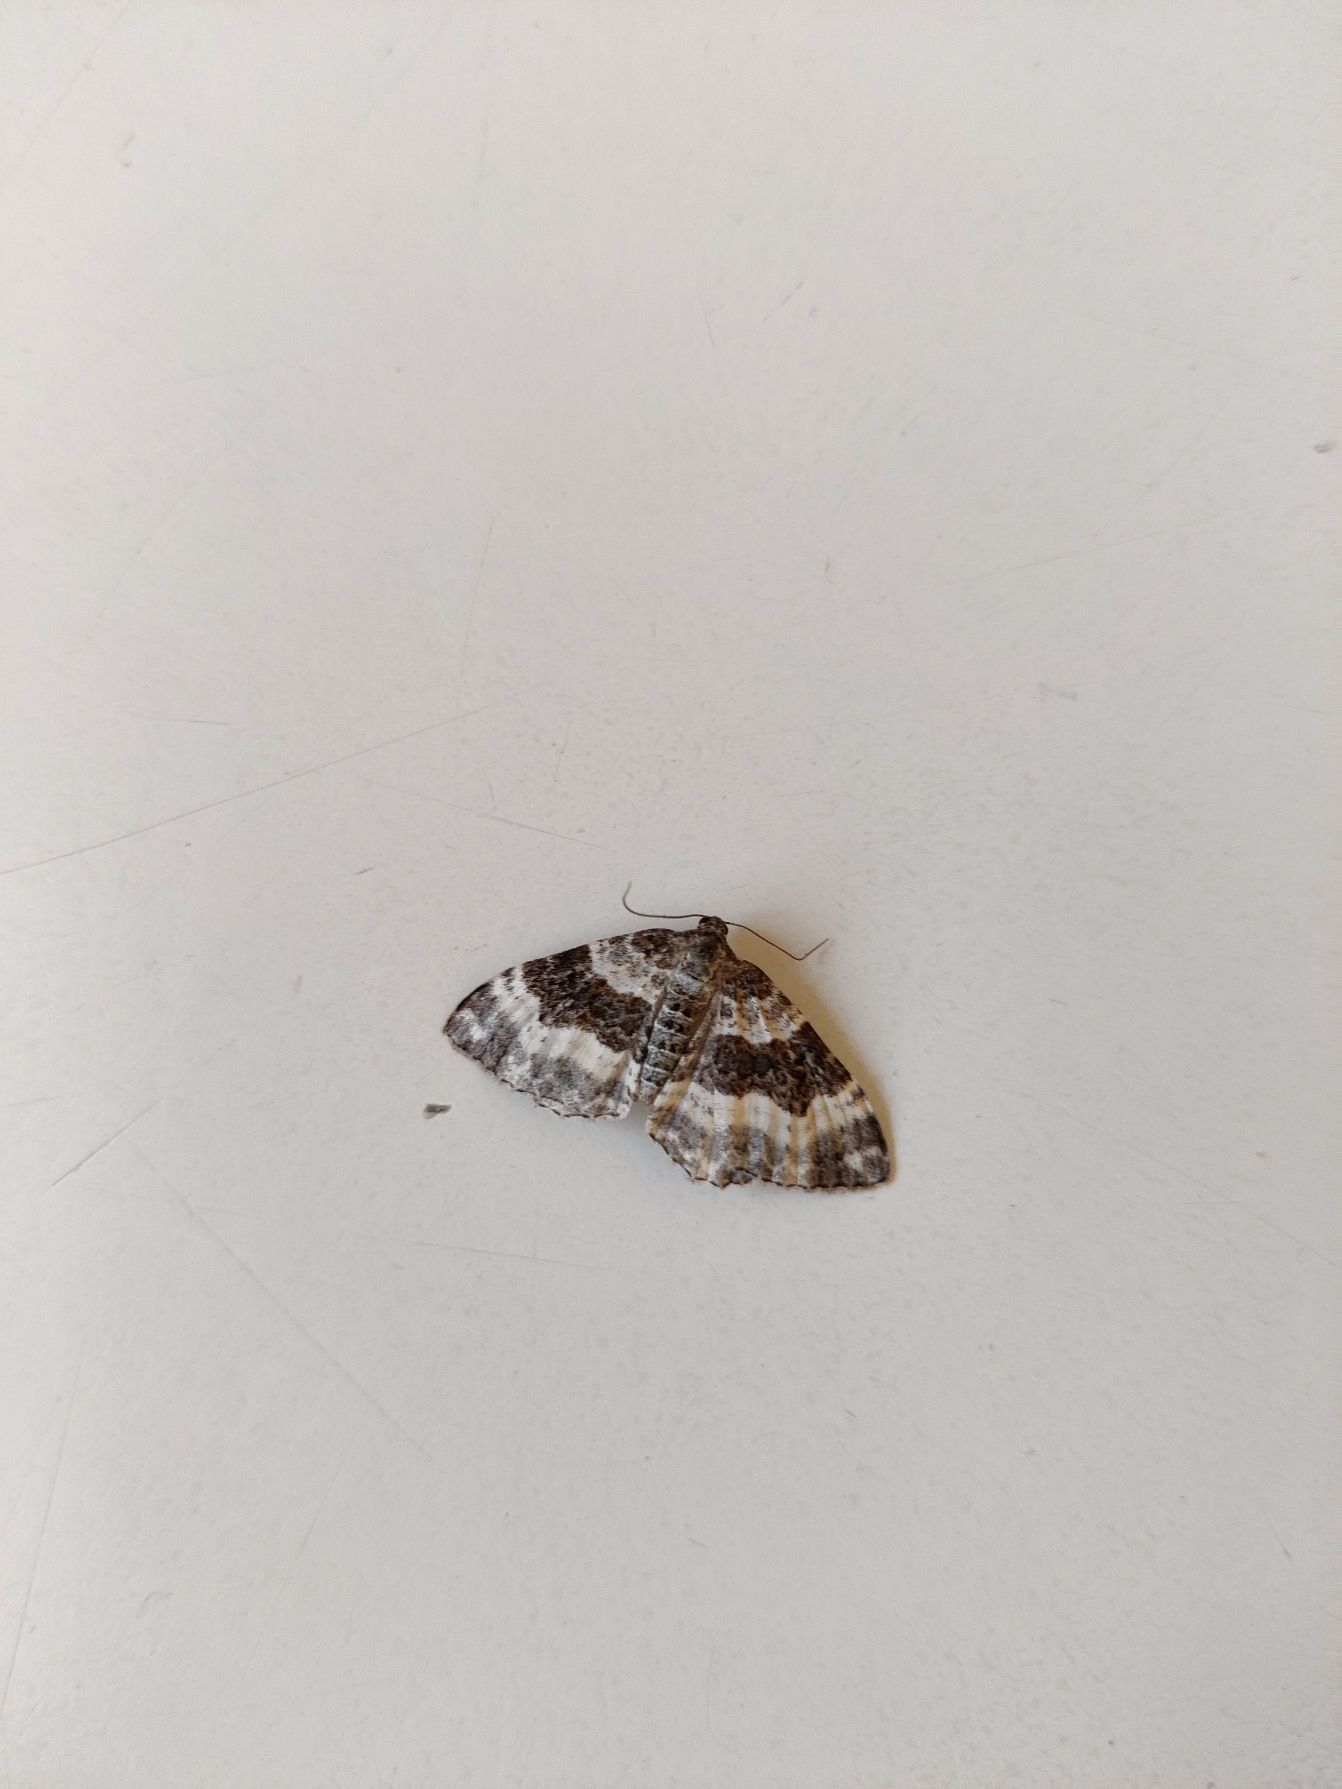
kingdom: Animalia
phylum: Arthropoda
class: Insecta
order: Lepidoptera
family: Geometridae
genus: Epirrhoe
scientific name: Epirrhoe alternata
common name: Almindelig bladmåler
